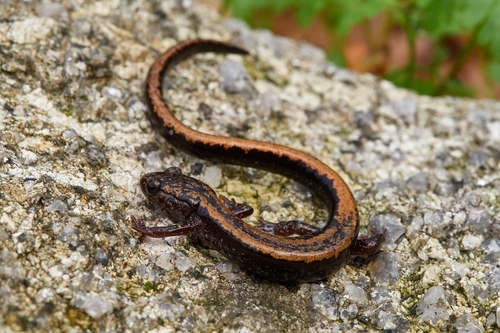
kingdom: Animalia
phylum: Chordata
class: Amphibia
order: Caudata
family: Salamandridae
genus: Chioglossa
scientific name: Chioglossa lusitanica
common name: Gold-striped salamander
